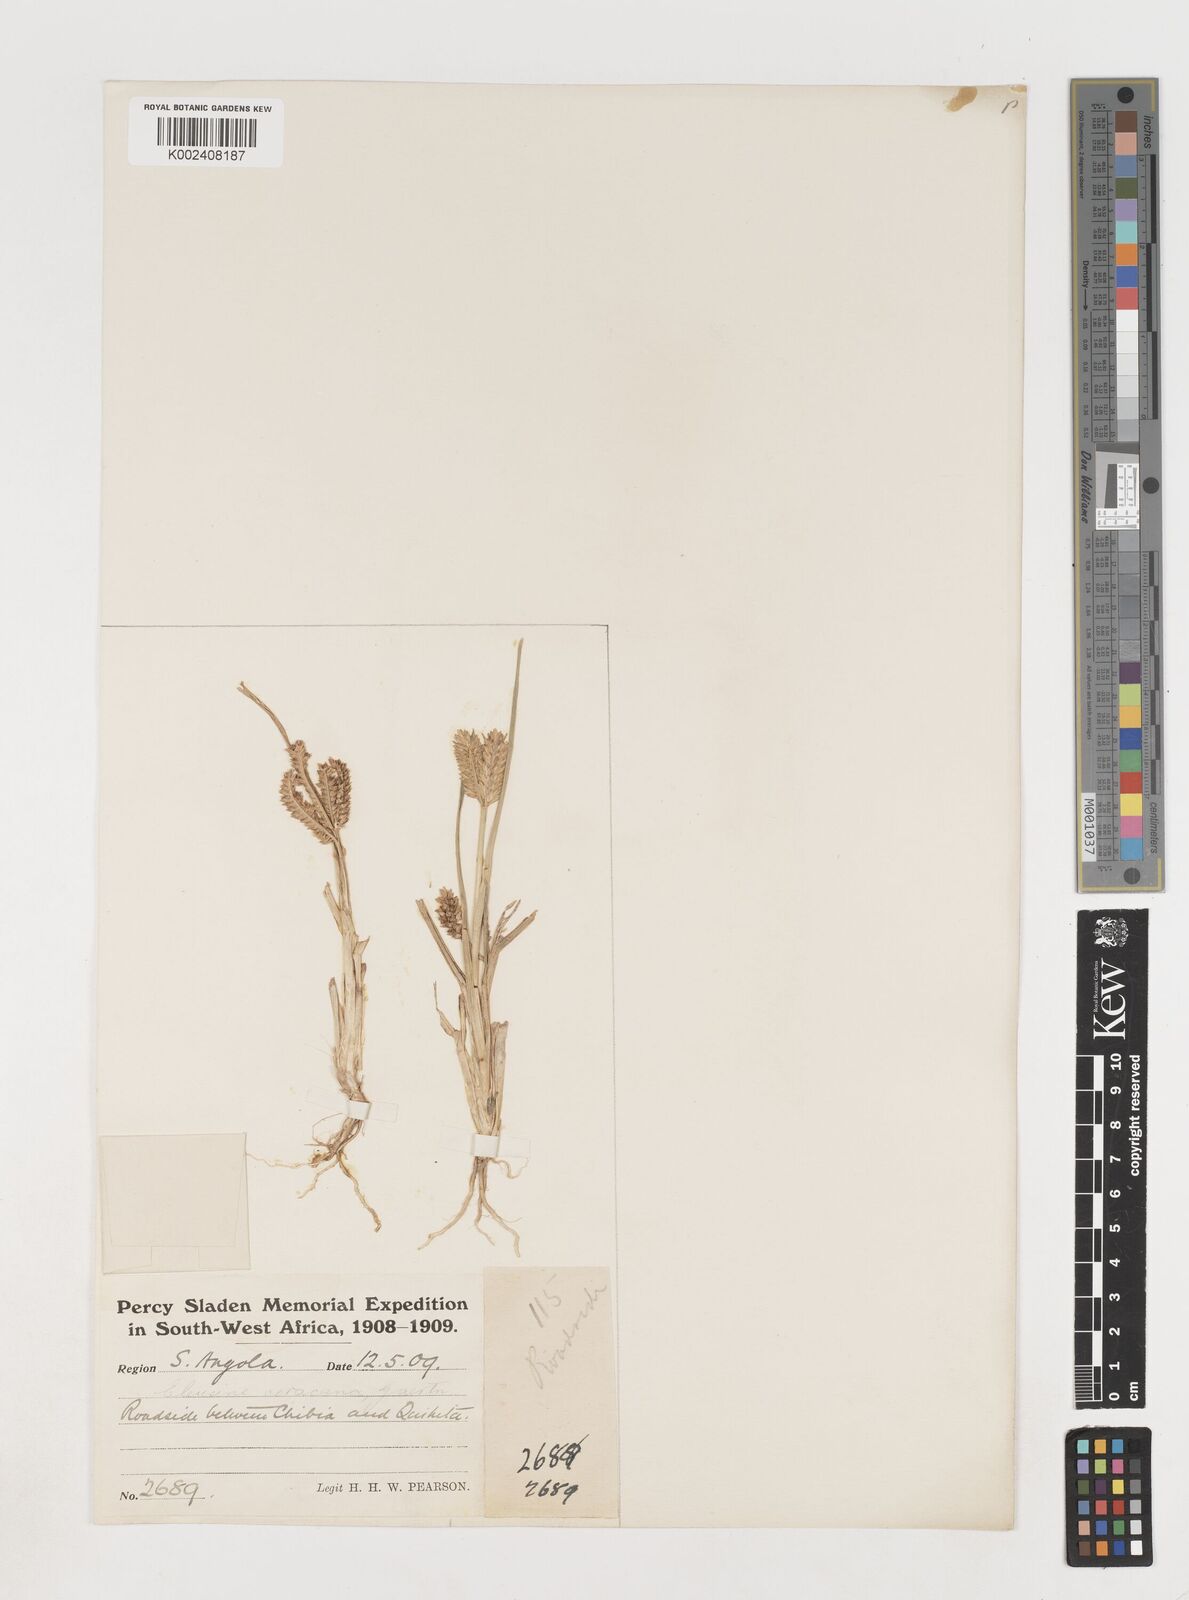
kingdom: Plantae
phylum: Tracheophyta
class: Liliopsida
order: Poales
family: Poaceae
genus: Eleusine
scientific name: Eleusine coracana
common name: Finger millet
